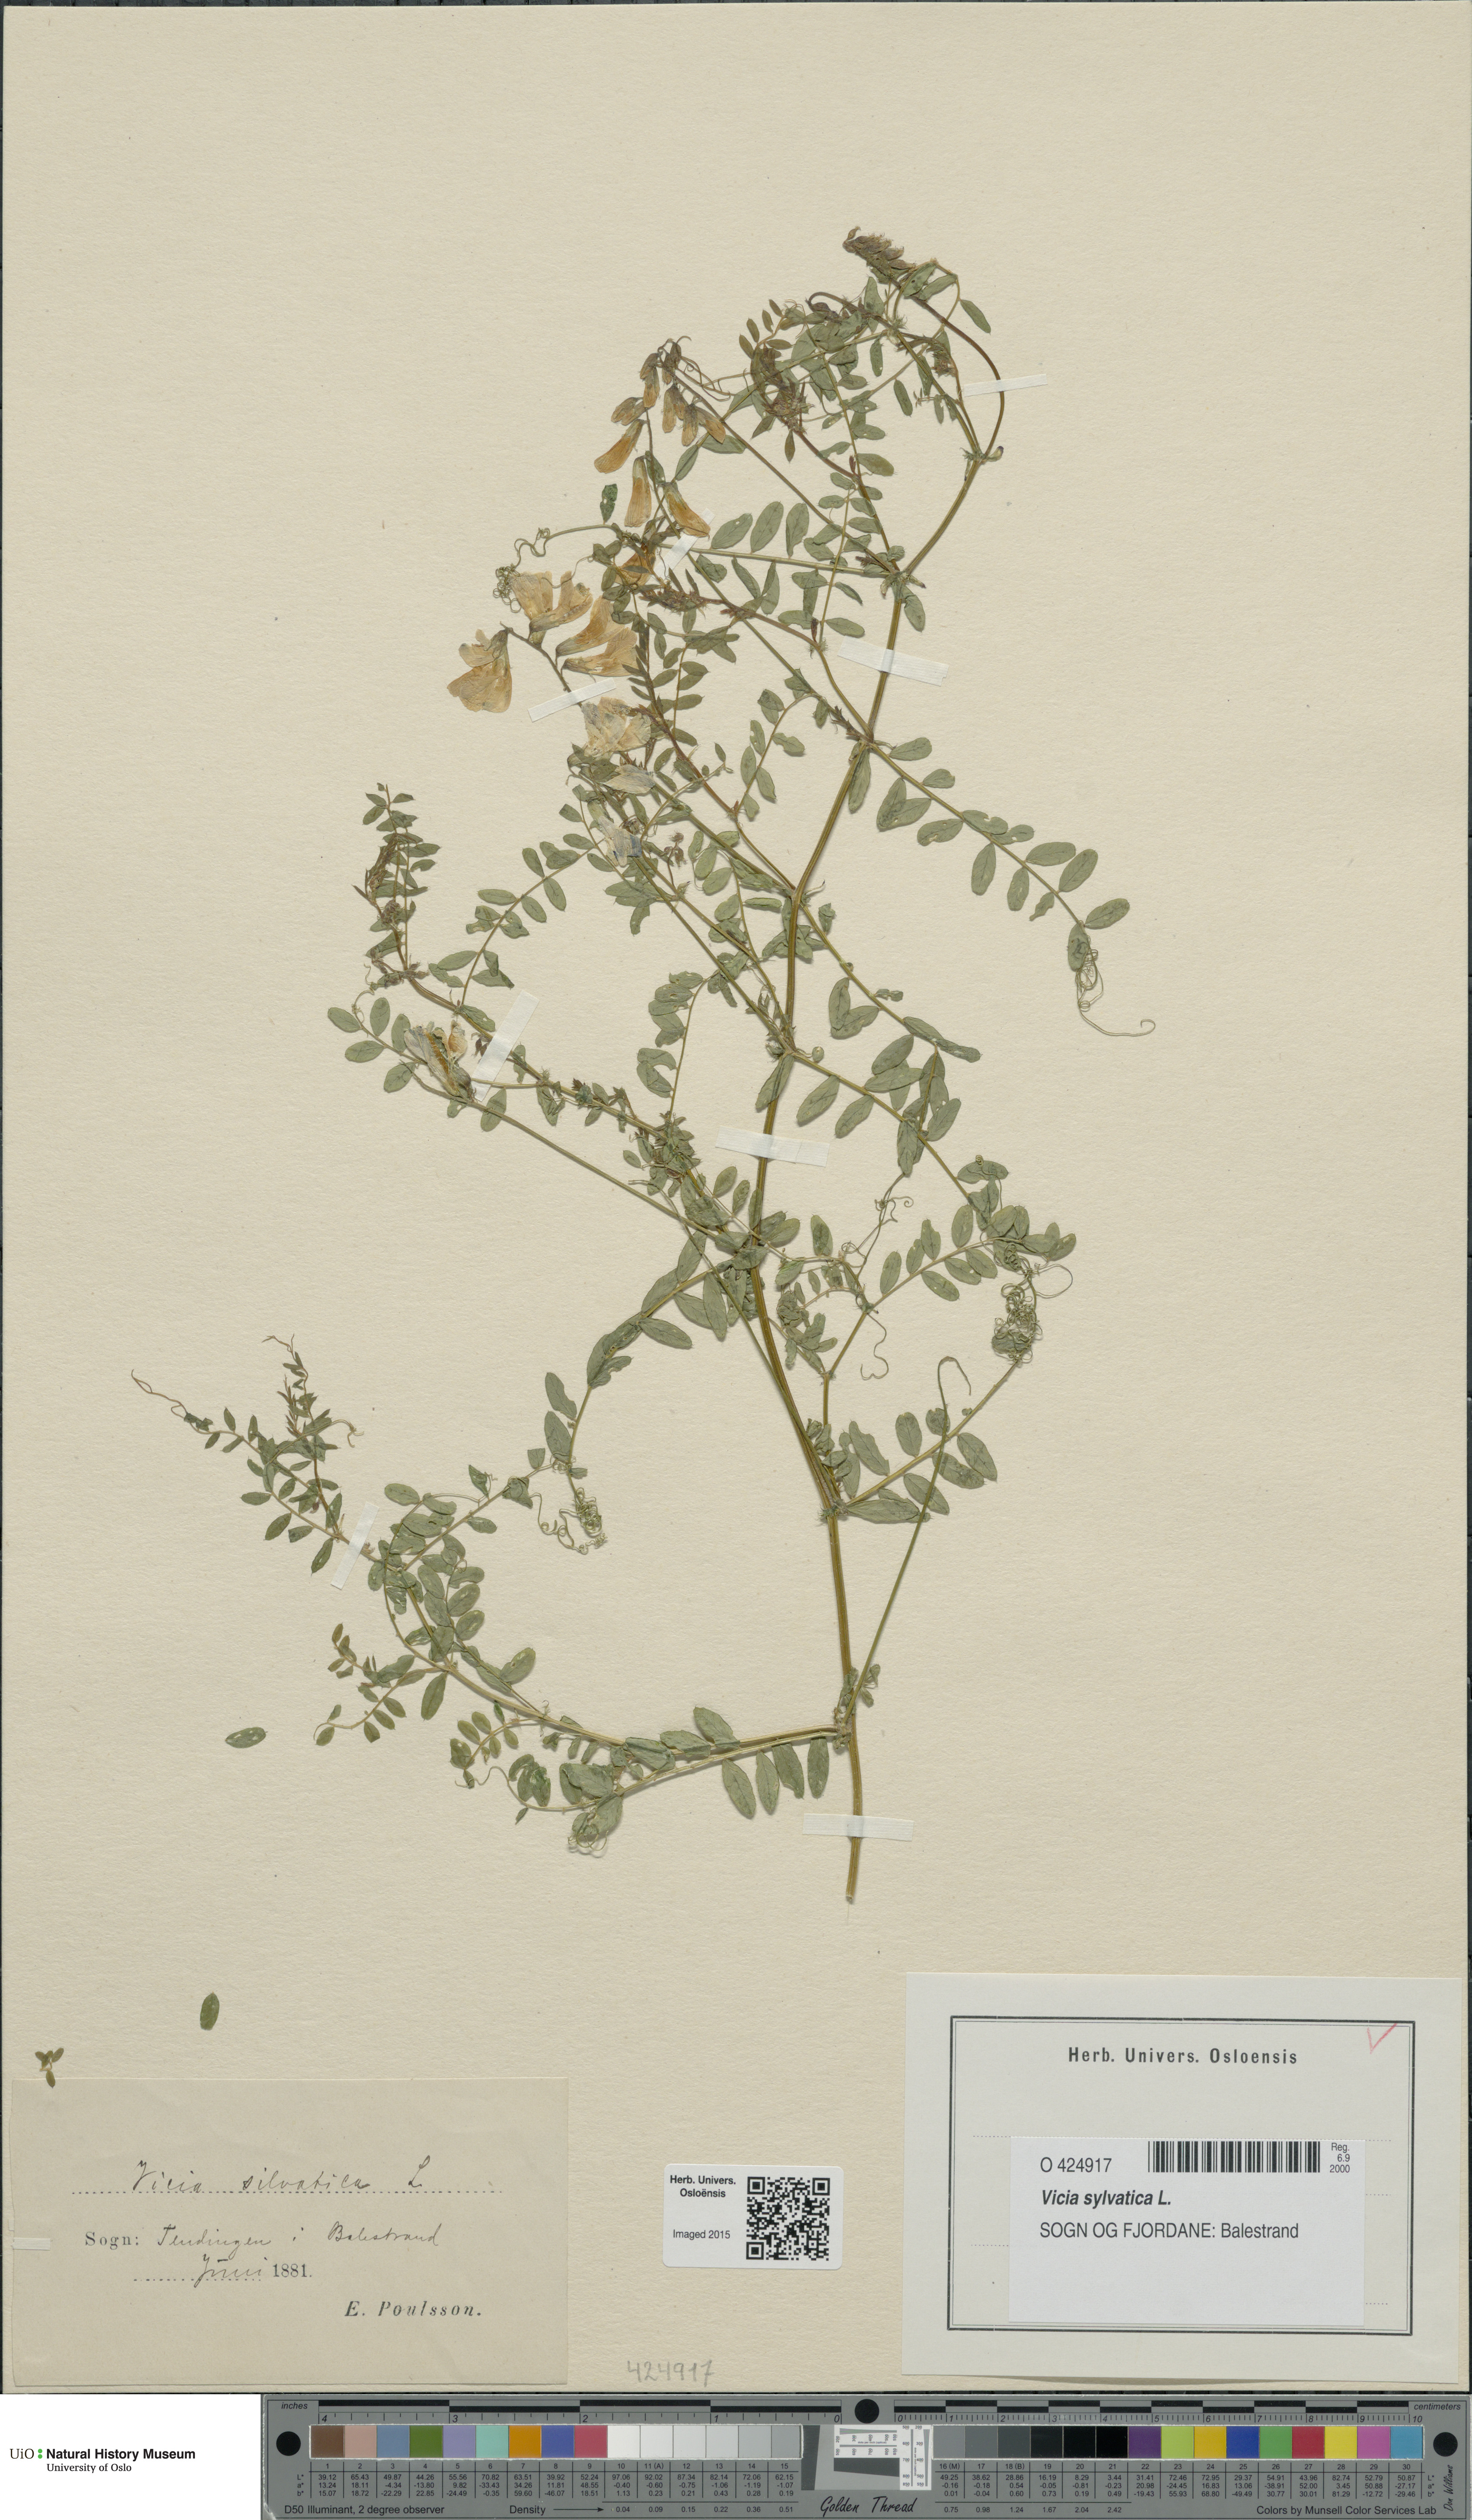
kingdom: Plantae
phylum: Tracheophyta
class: Magnoliopsida
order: Fabales
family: Fabaceae
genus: Vicia
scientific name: Vicia sylvatica
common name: Wood vetch
